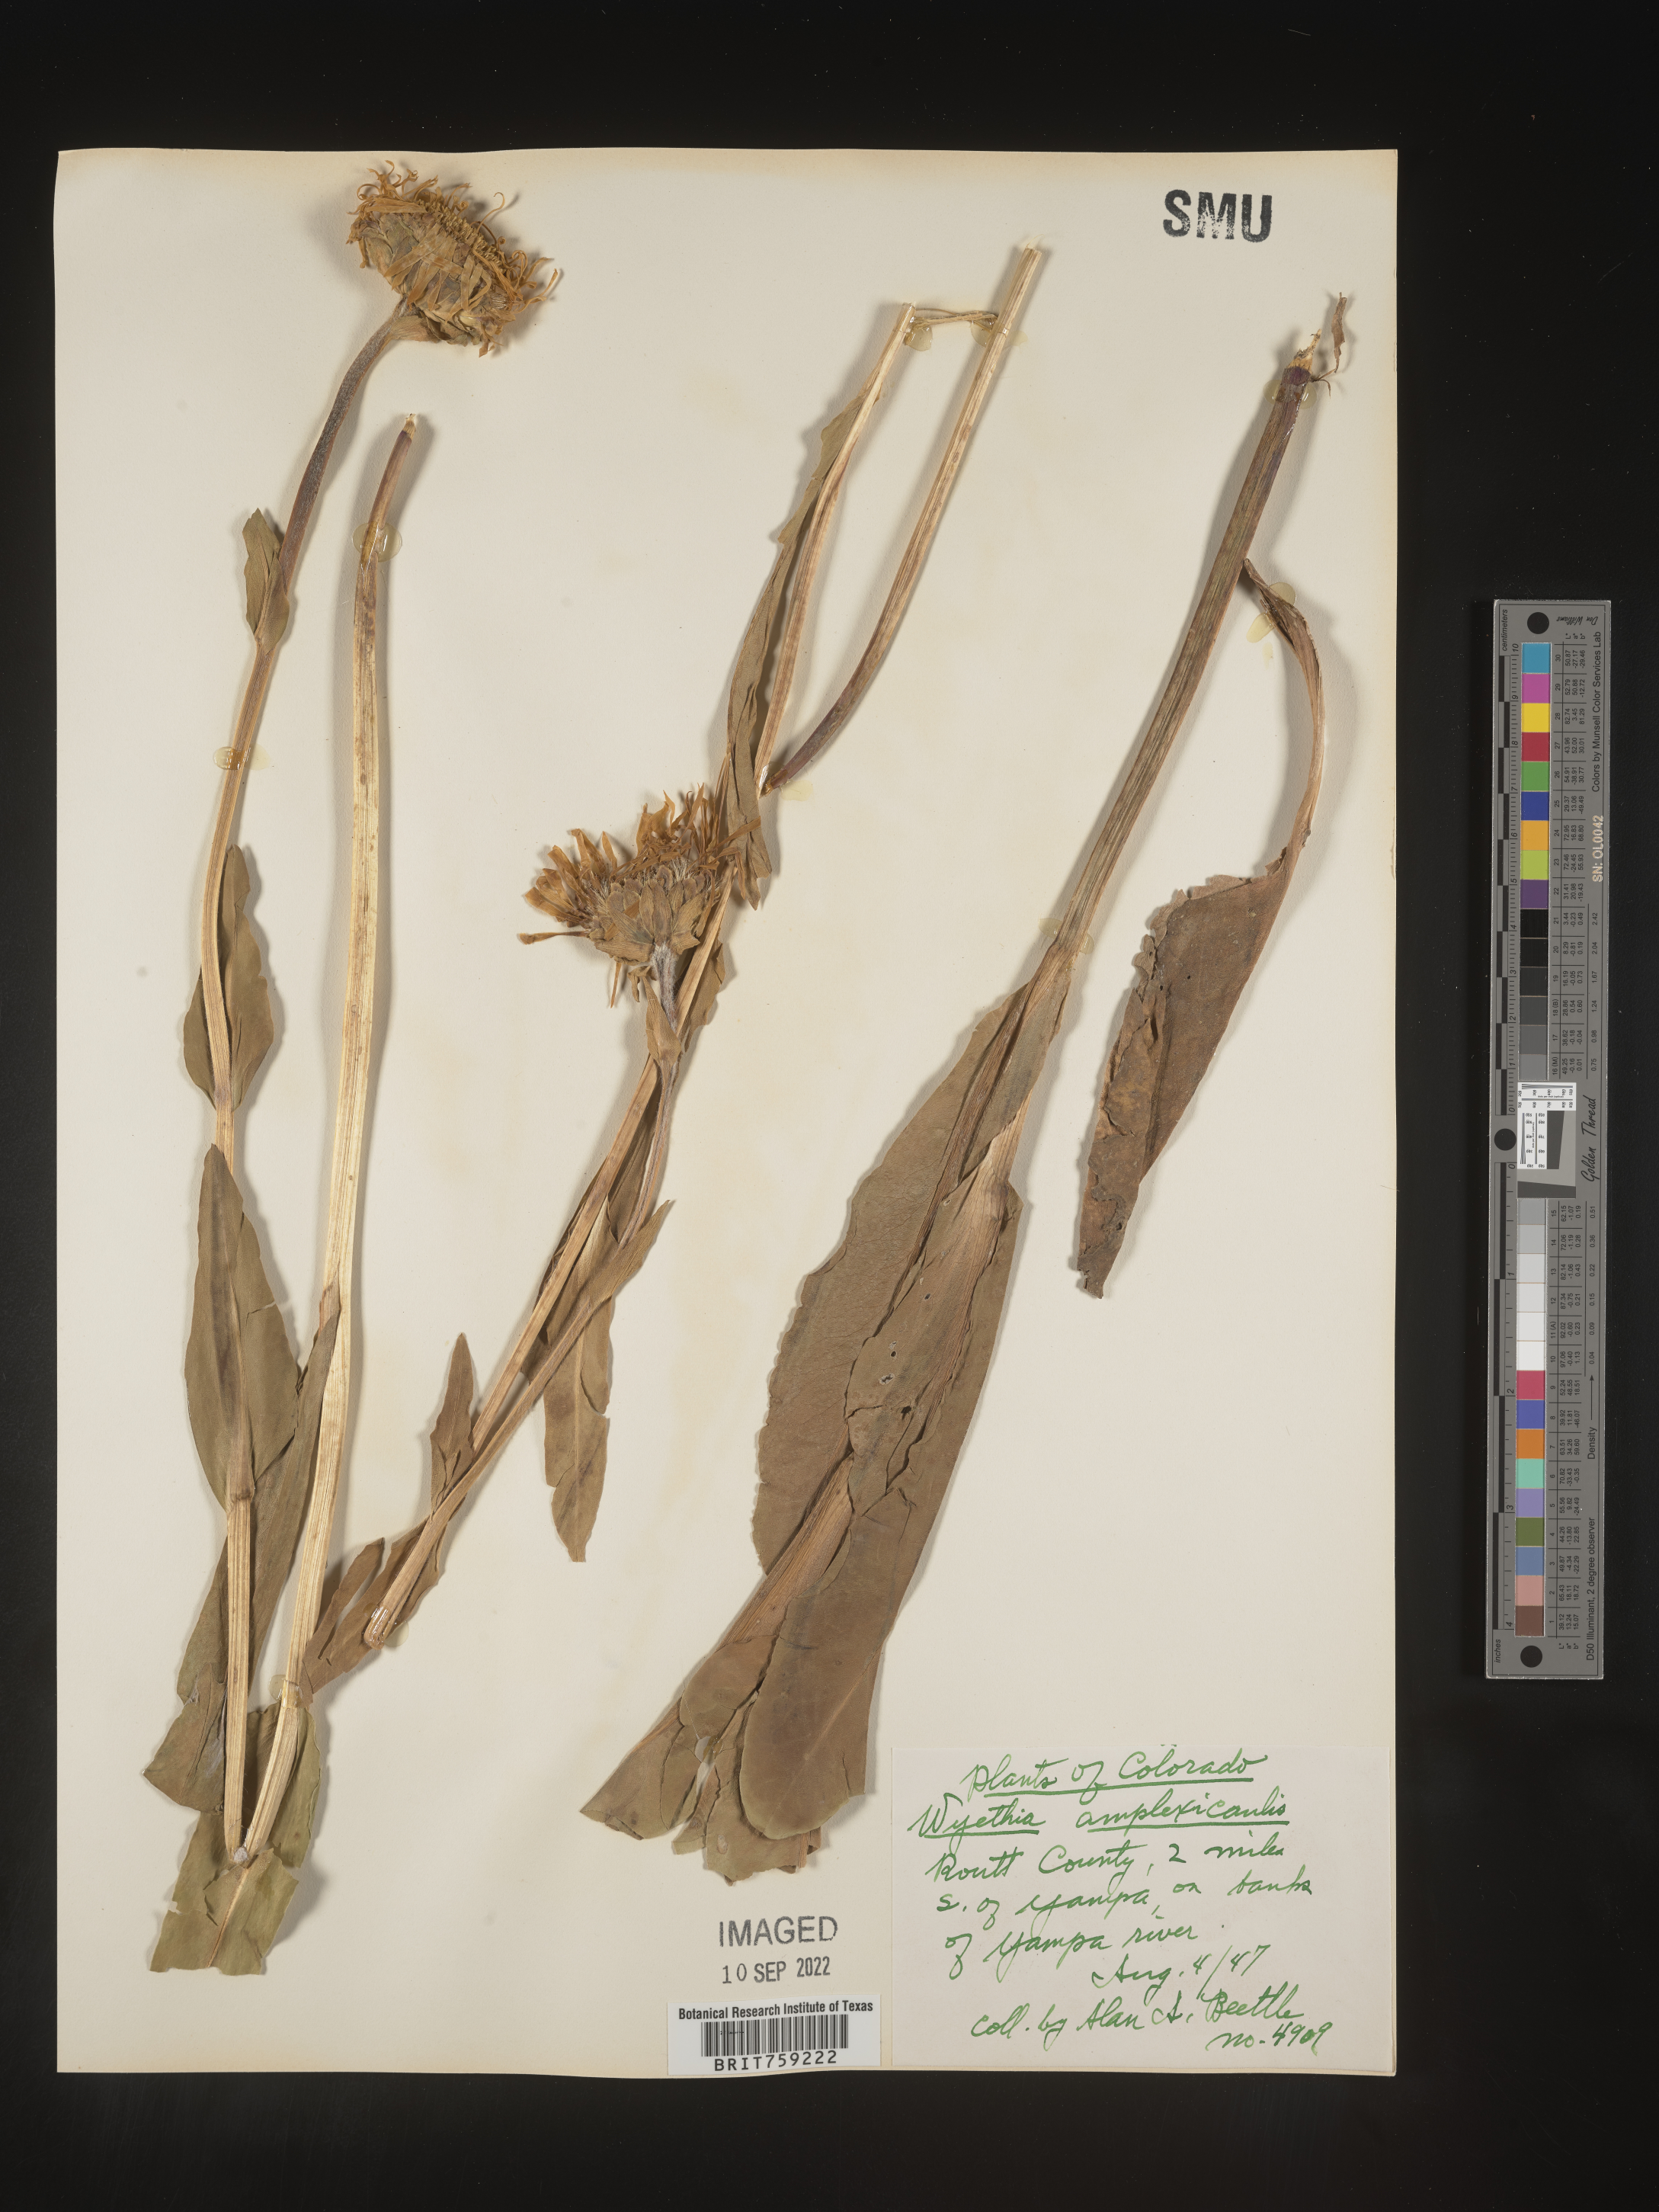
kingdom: Plantae
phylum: Tracheophyta
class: Magnoliopsida
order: Asterales
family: Asteraceae
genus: Wyethia
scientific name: Wyethia amplexicaulis
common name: Northern mule's-ears
